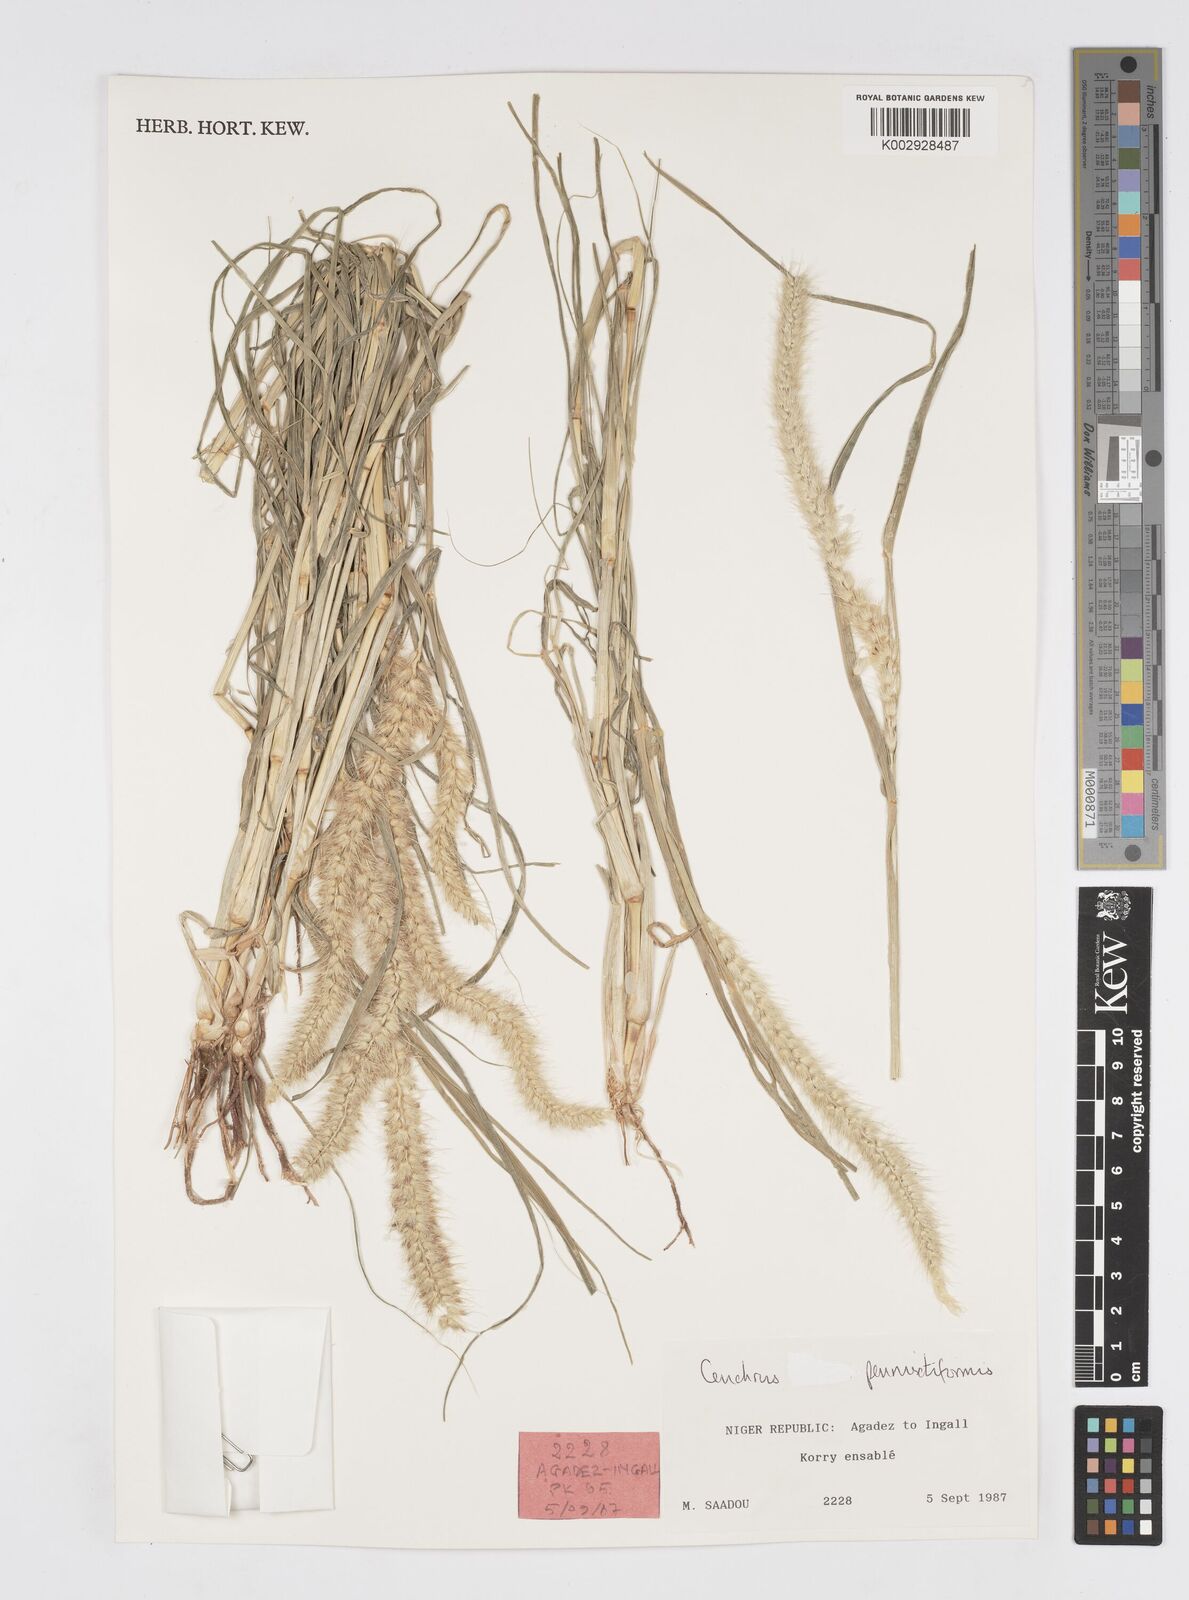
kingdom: Plantae
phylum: Tracheophyta
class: Liliopsida
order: Poales
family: Poaceae
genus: Cenchrus
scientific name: Cenchrus pennisetiformis
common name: Cloncurry
